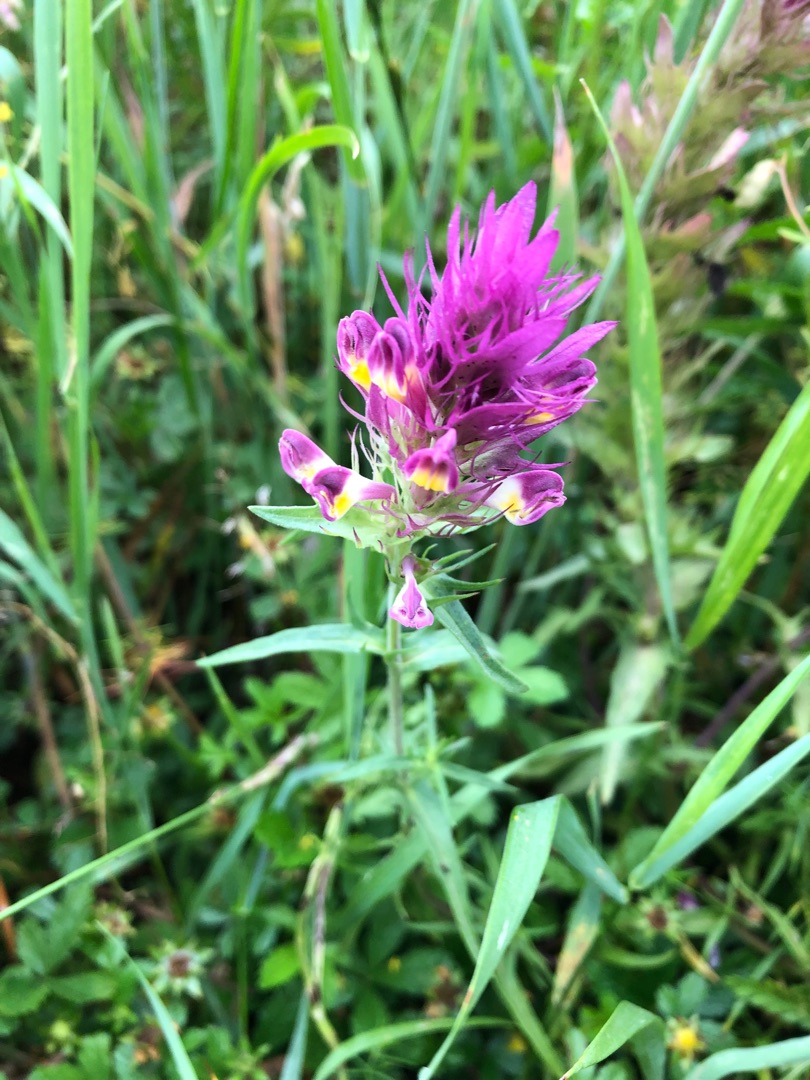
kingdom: Plantae
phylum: Tracheophyta
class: Magnoliopsida
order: Lamiales
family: Orobanchaceae
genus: Melampyrum
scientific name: Melampyrum arvense
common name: Ager-kohvede
